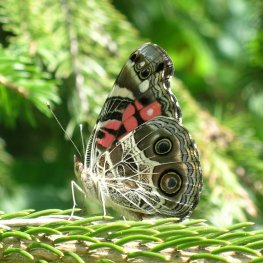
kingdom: Animalia
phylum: Arthropoda
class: Insecta
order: Lepidoptera
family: Nymphalidae
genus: Vanessa
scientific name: Vanessa virginiensis
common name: American Lady
